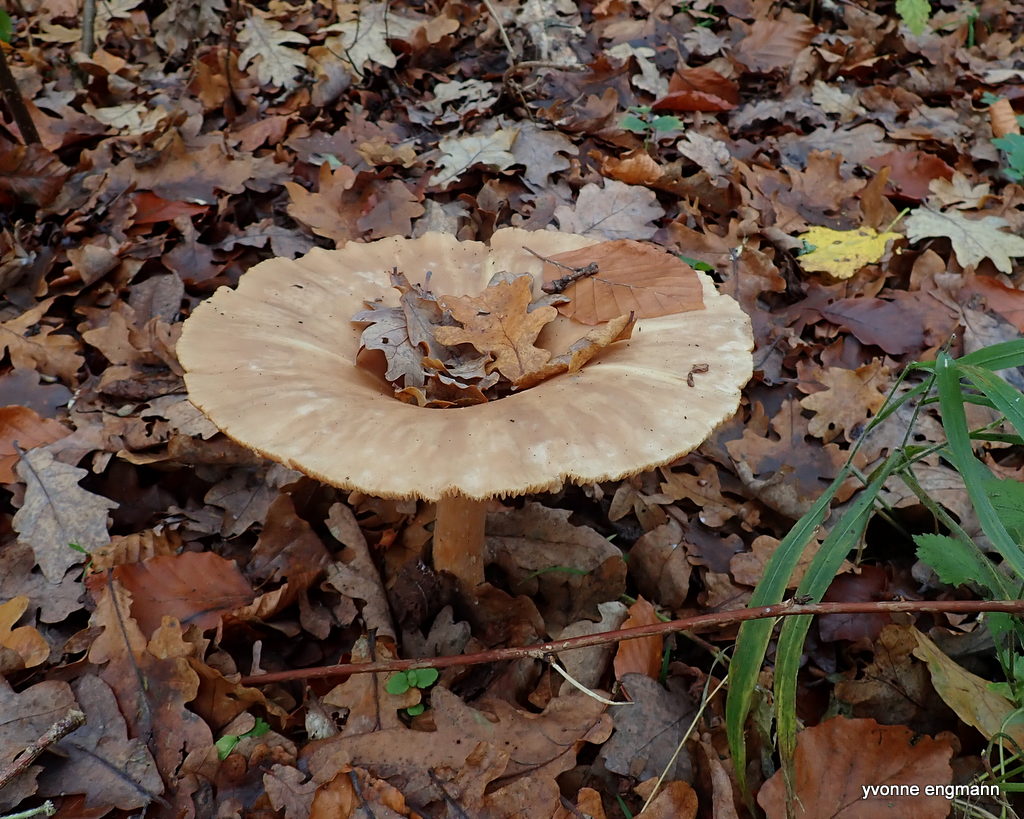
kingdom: Fungi
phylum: Basidiomycota
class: Agaricomycetes
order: Agaricales
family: Tricholomataceae
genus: Infundibulicybe
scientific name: Infundibulicybe geotropa
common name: stor tragthat
